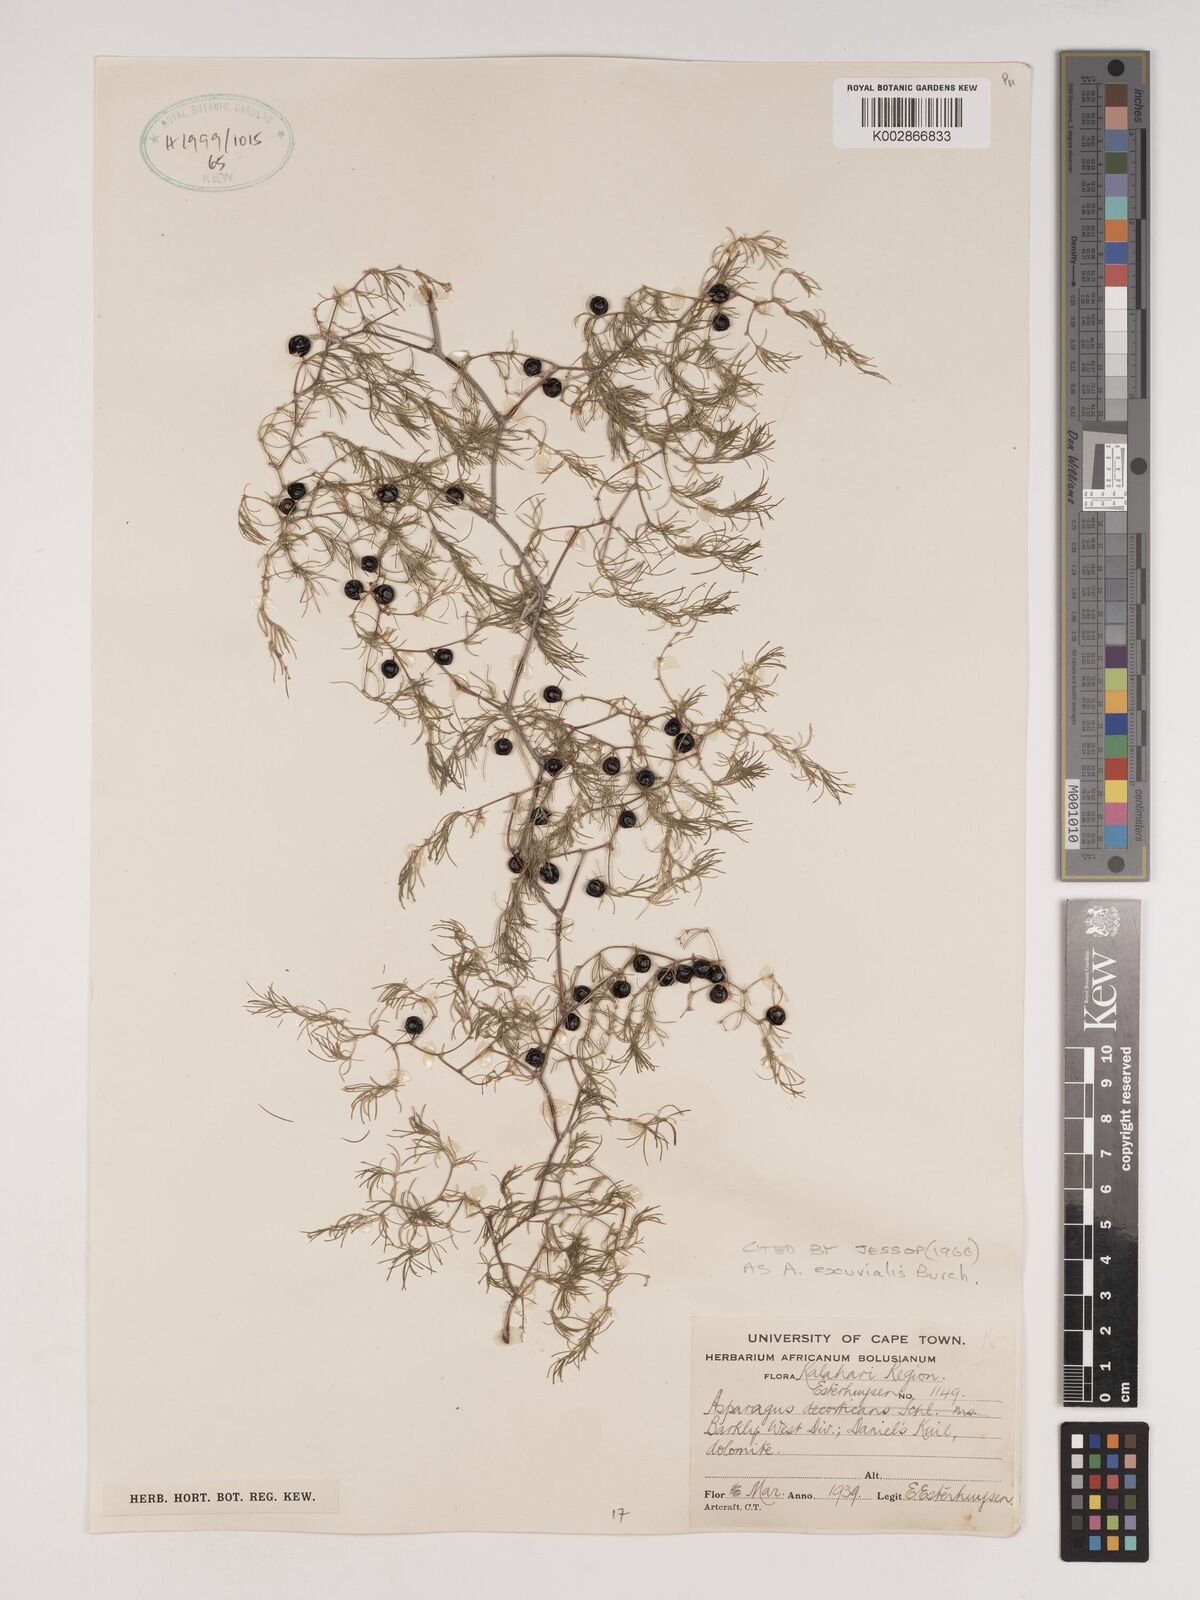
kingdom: Plantae
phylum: Tracheophyta
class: Liliopsida
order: Asparagales
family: Asparagaceae
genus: Asparagus
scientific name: Asparagus exuvialis
